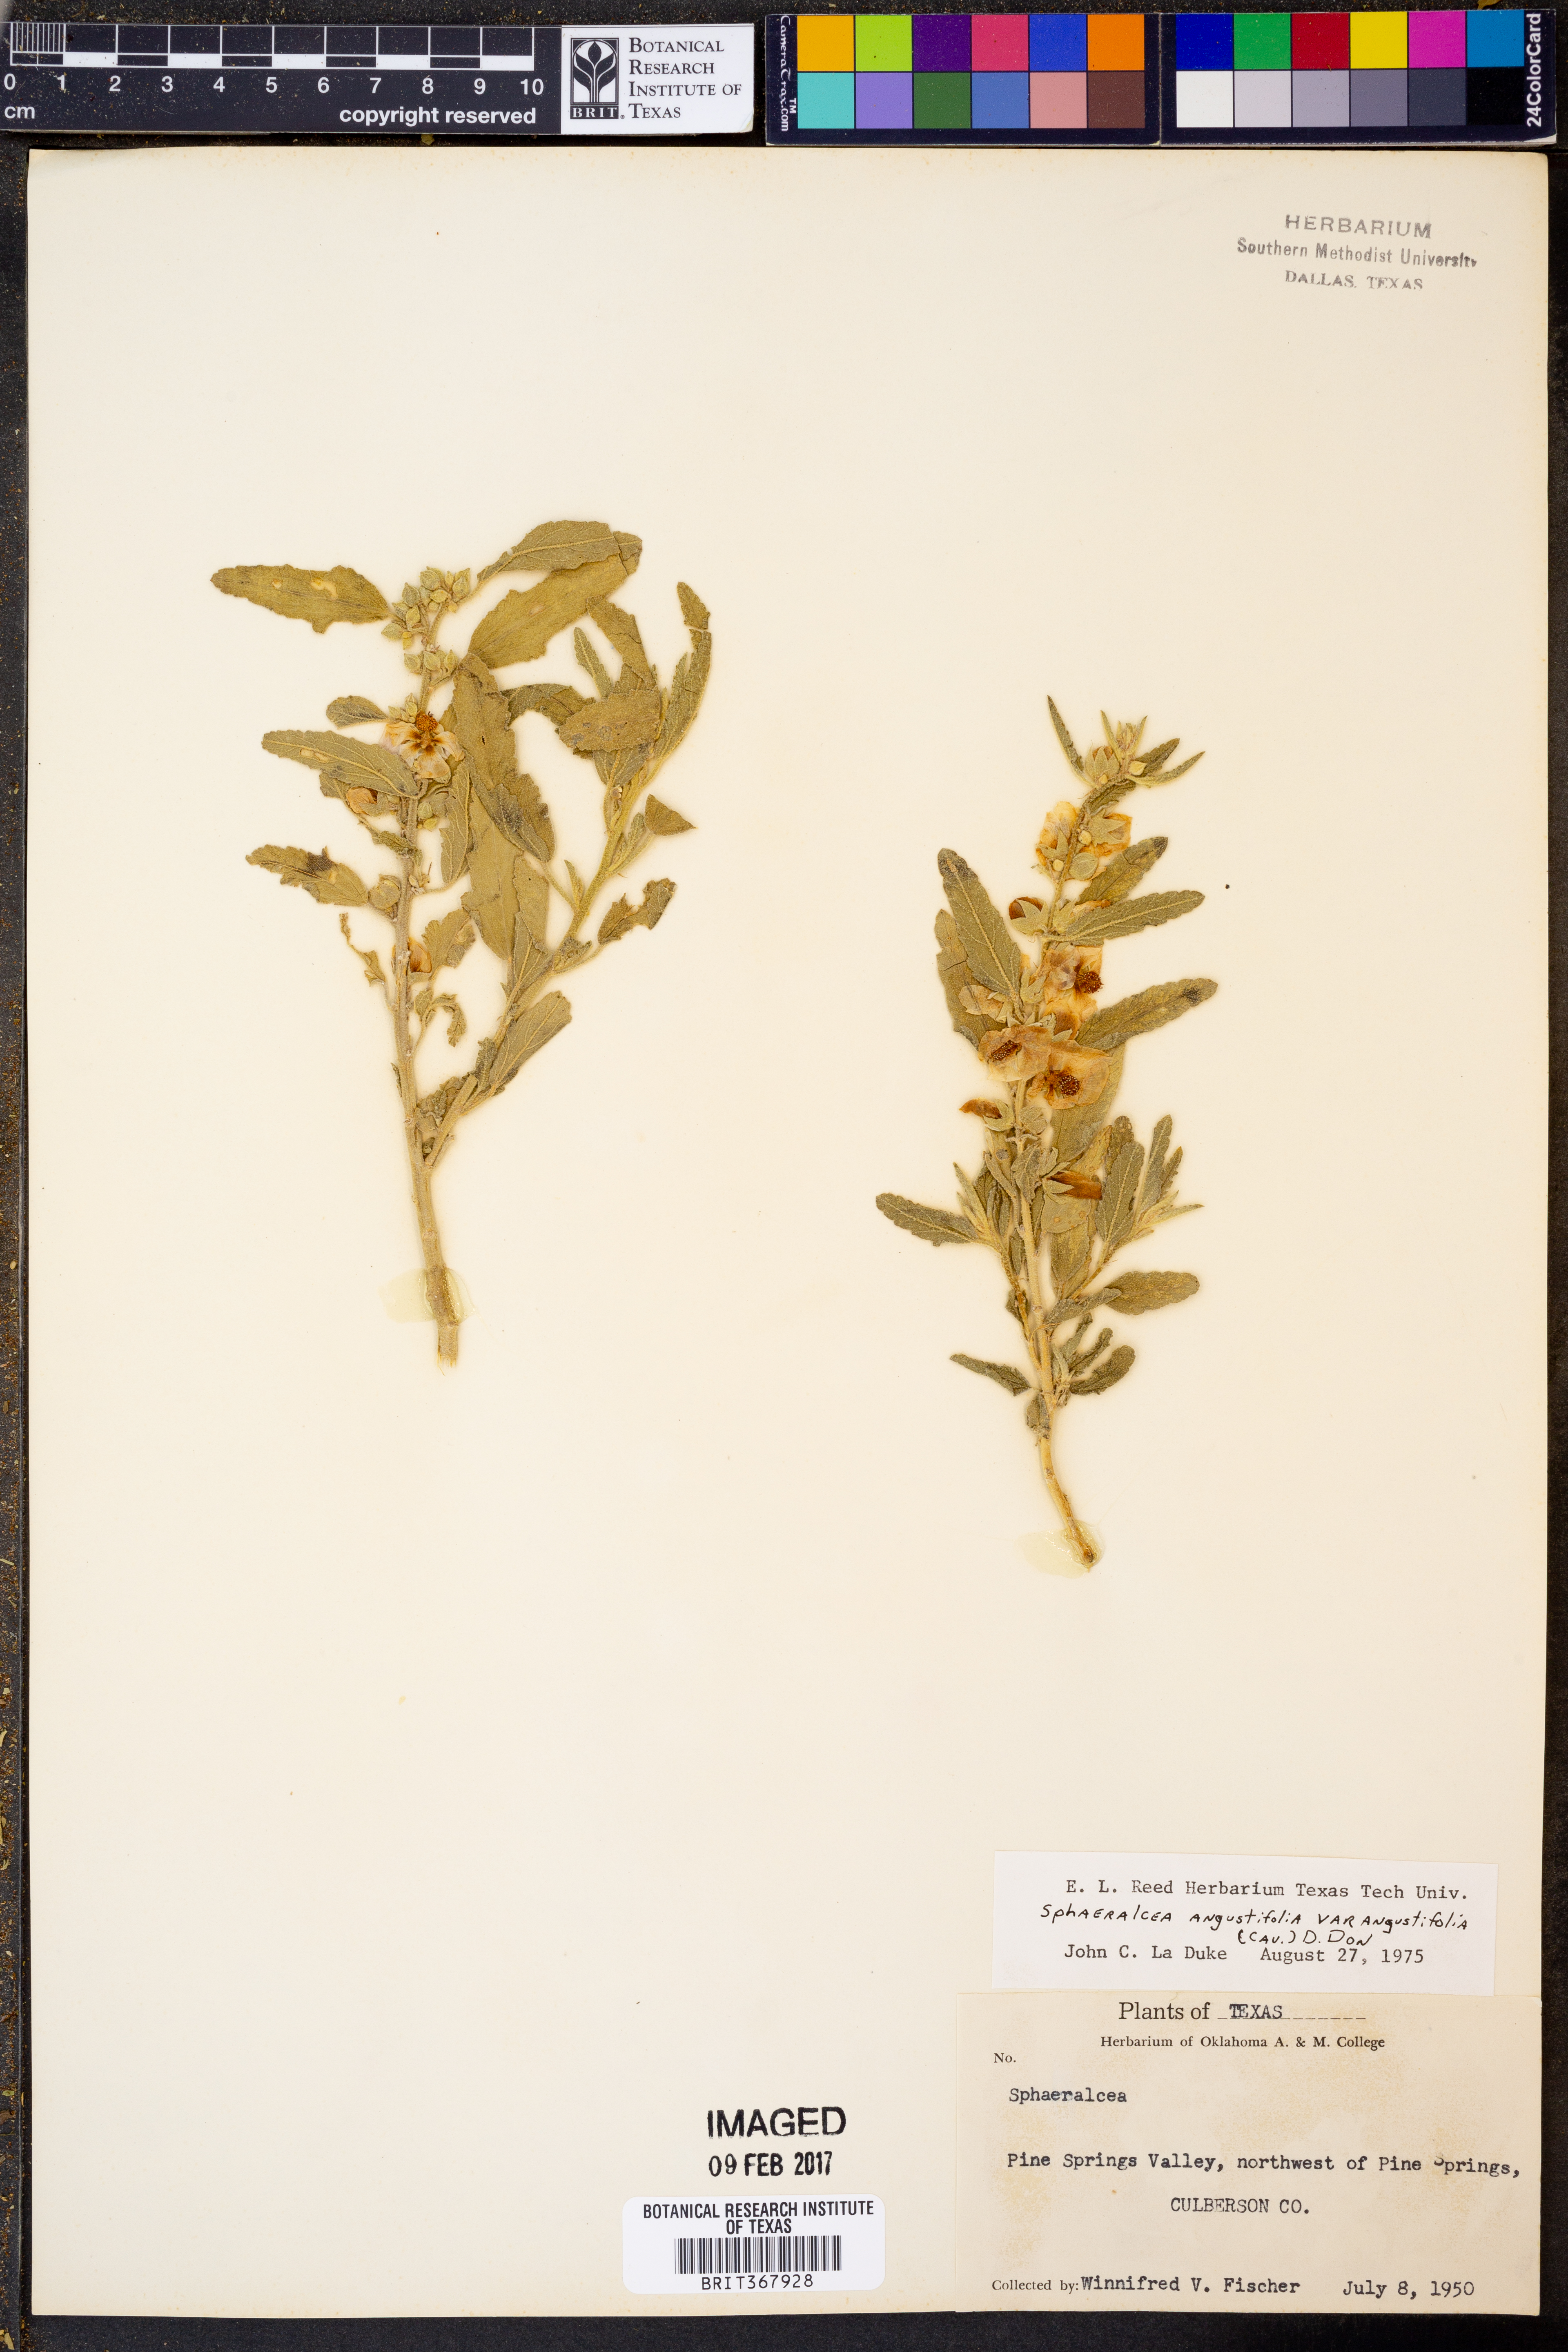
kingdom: Plantae
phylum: Tracheophyta
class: Magnoliopsida
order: Malvales
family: Malvaceae
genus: Sphaeralcea
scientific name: Sphaeralcea angustifolia
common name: Copper globe-mallow
